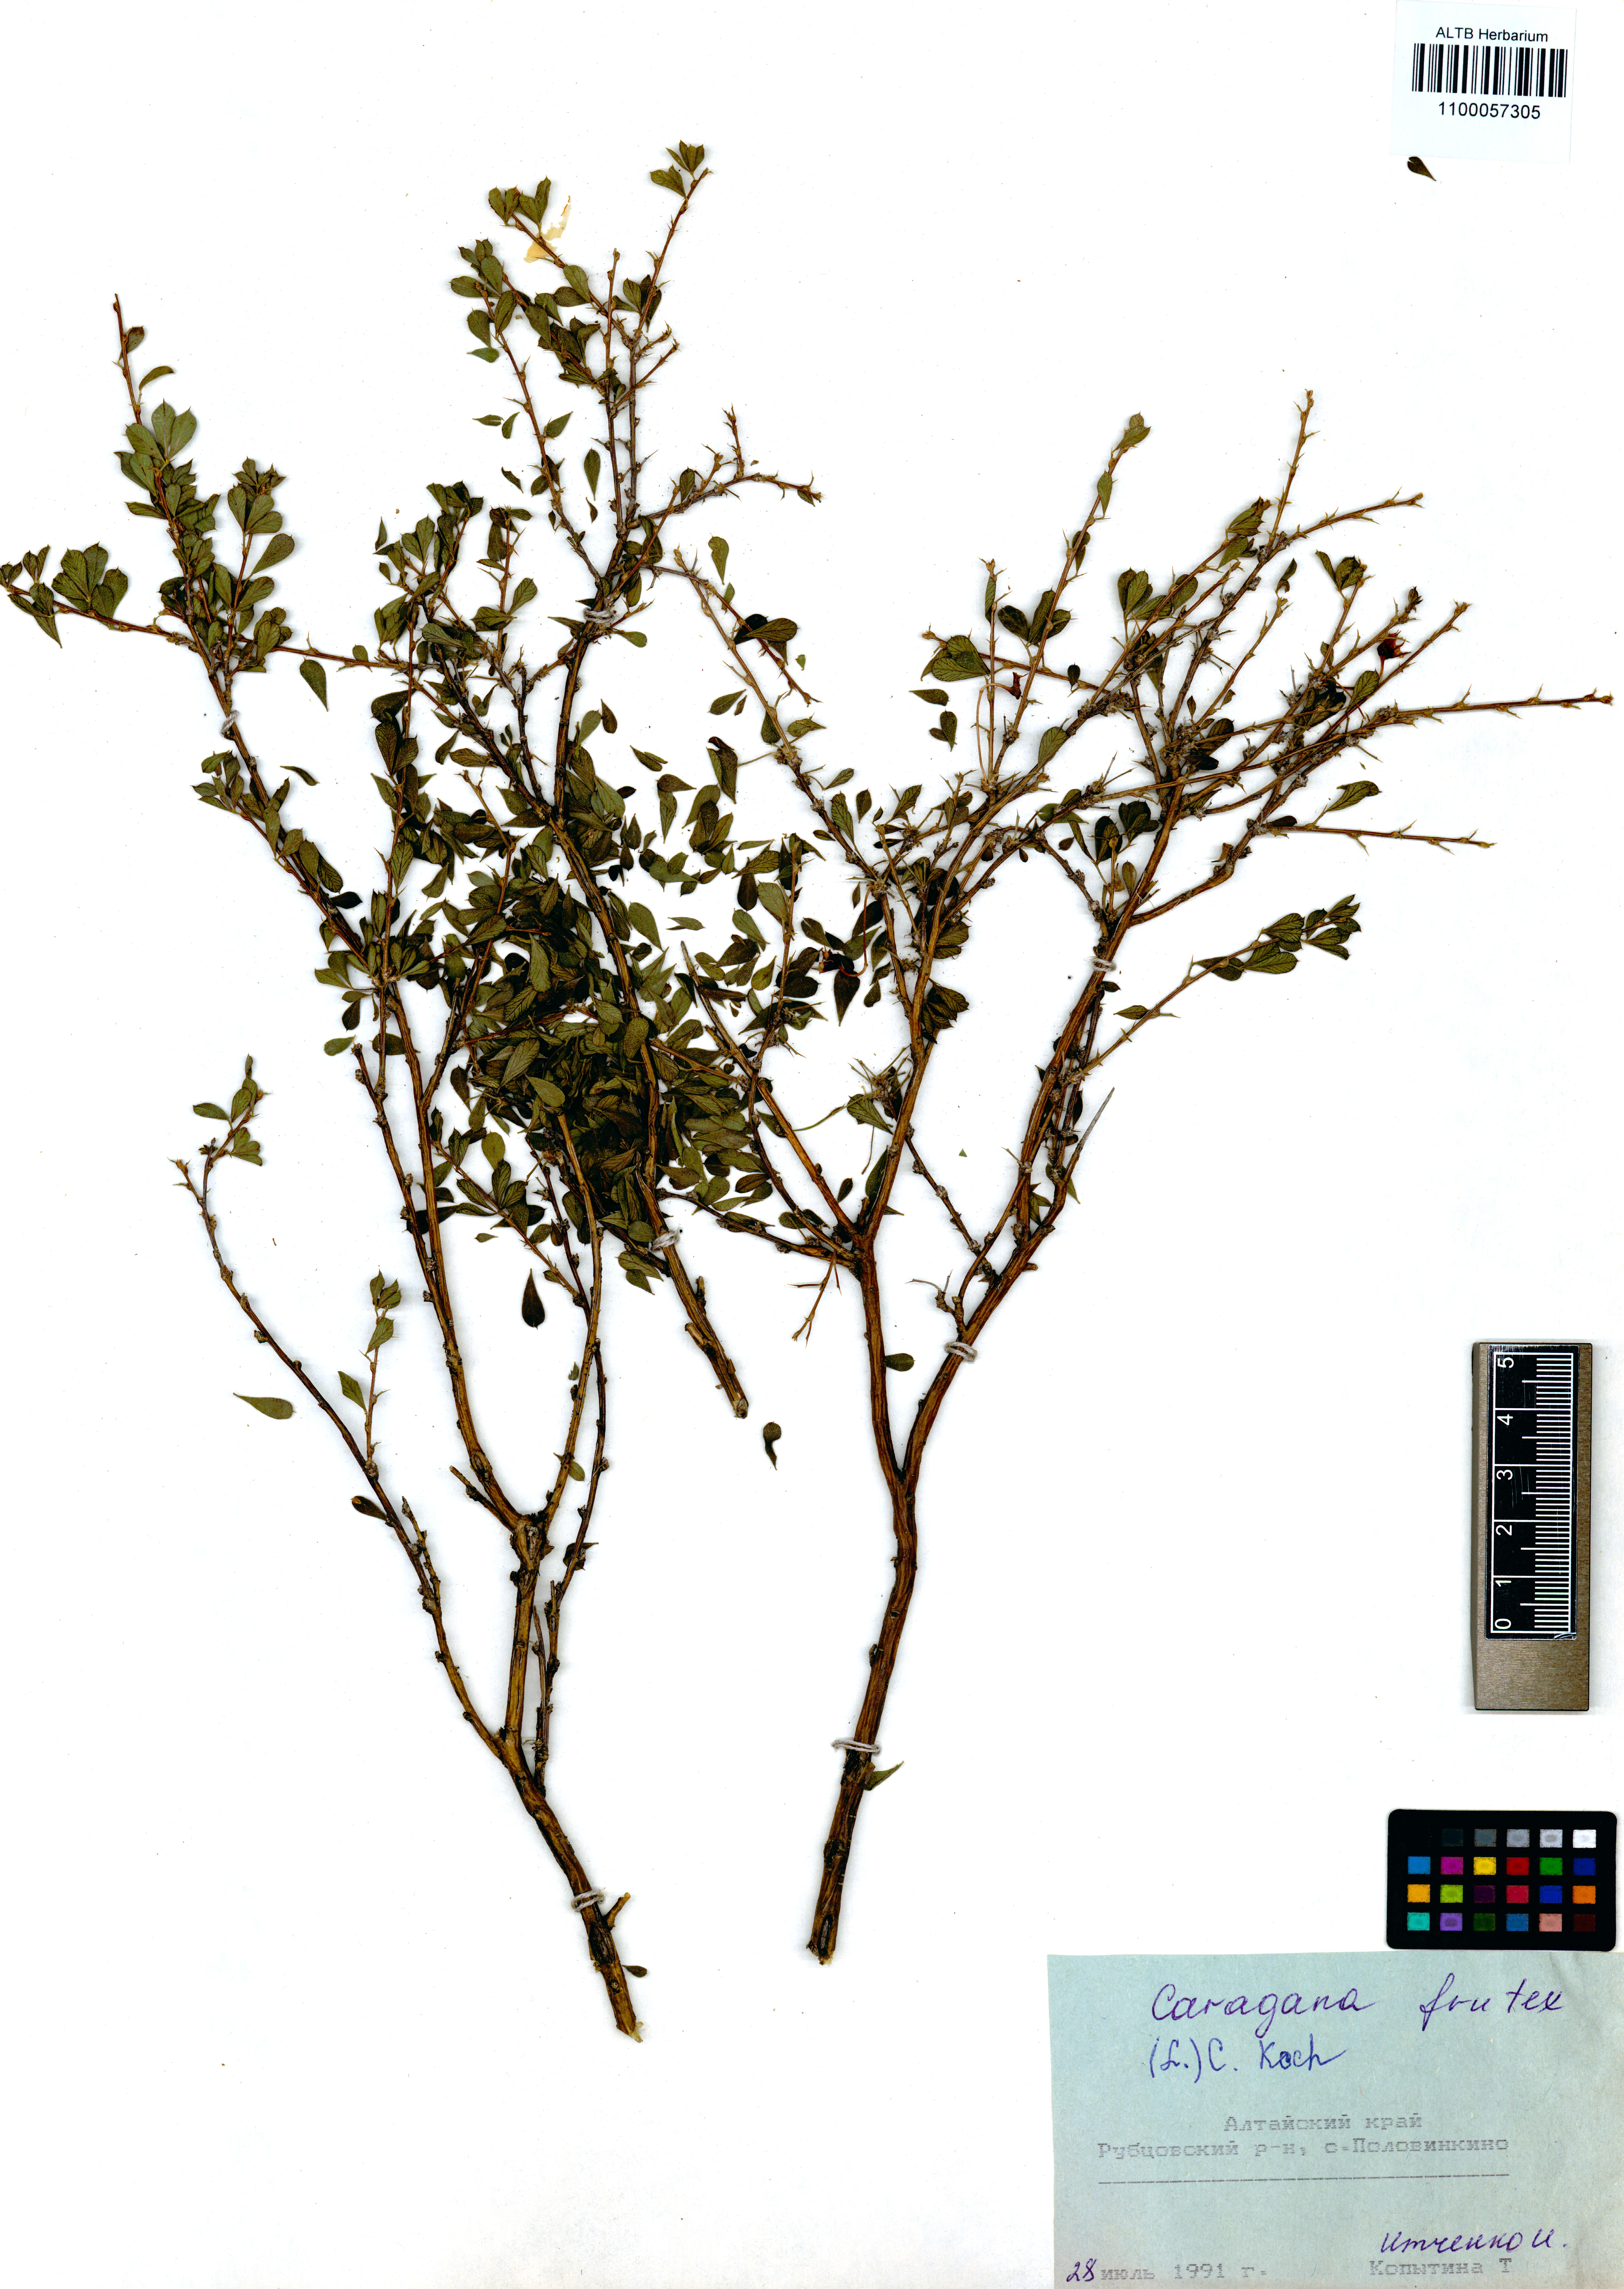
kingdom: Plantae
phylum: Tracheophyta
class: Magnoliopsida
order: Fabales
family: Fabaceae
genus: Caragana
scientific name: Caragana frutex
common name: Russian peashrub
